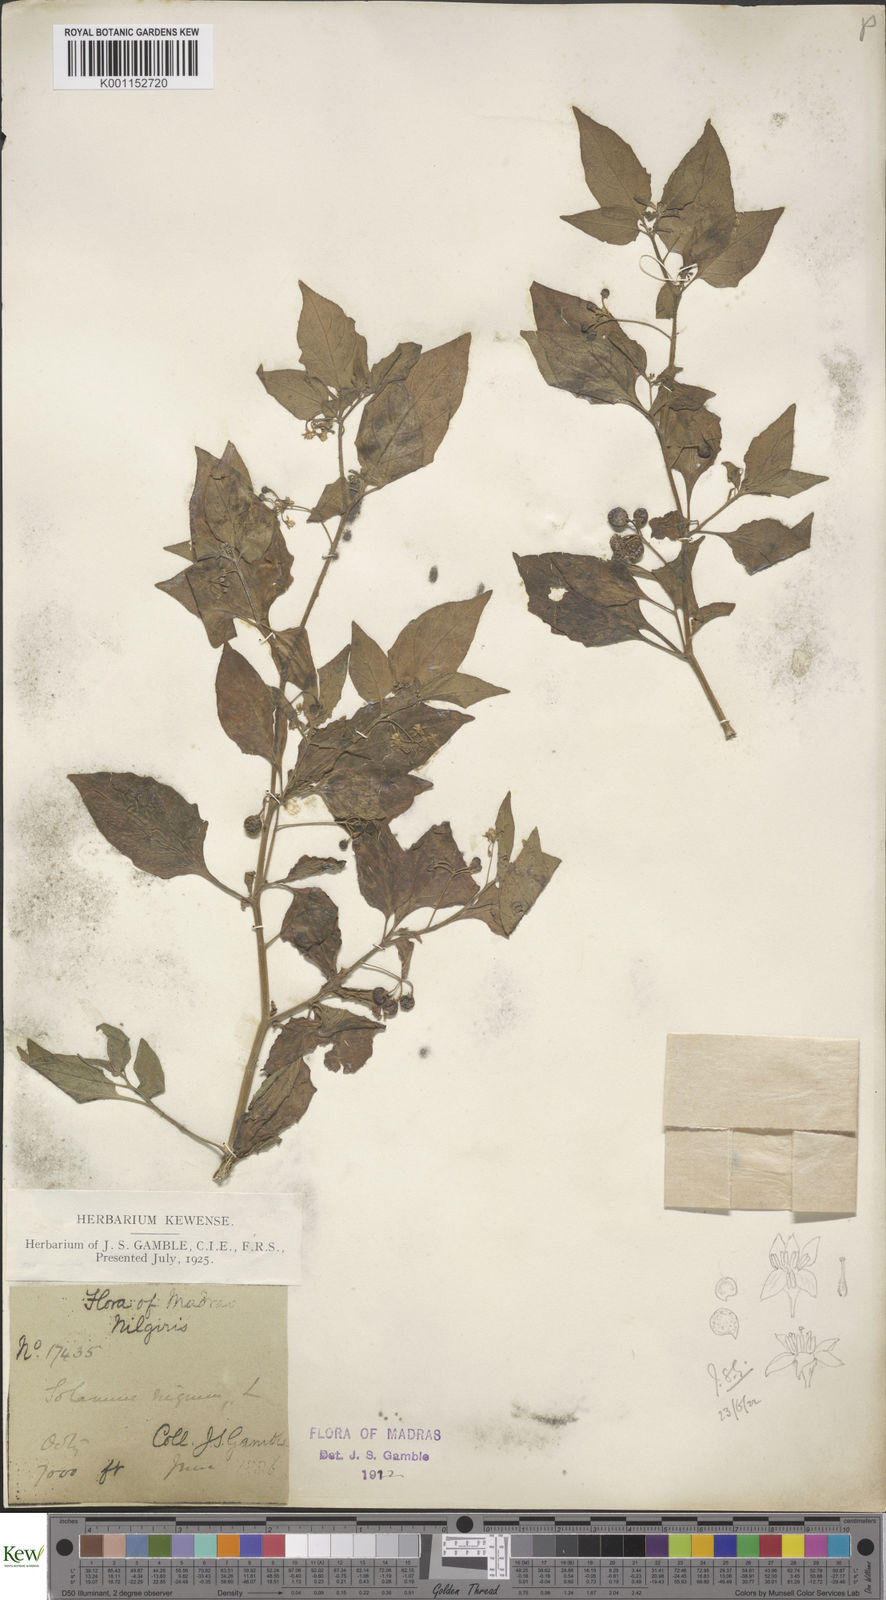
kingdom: Plantae
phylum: Tracheophyta
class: Magnoliopsida
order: Solanales
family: Solanaceae
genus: Solanum
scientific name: Solanum nigrum
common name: Black nightshade
